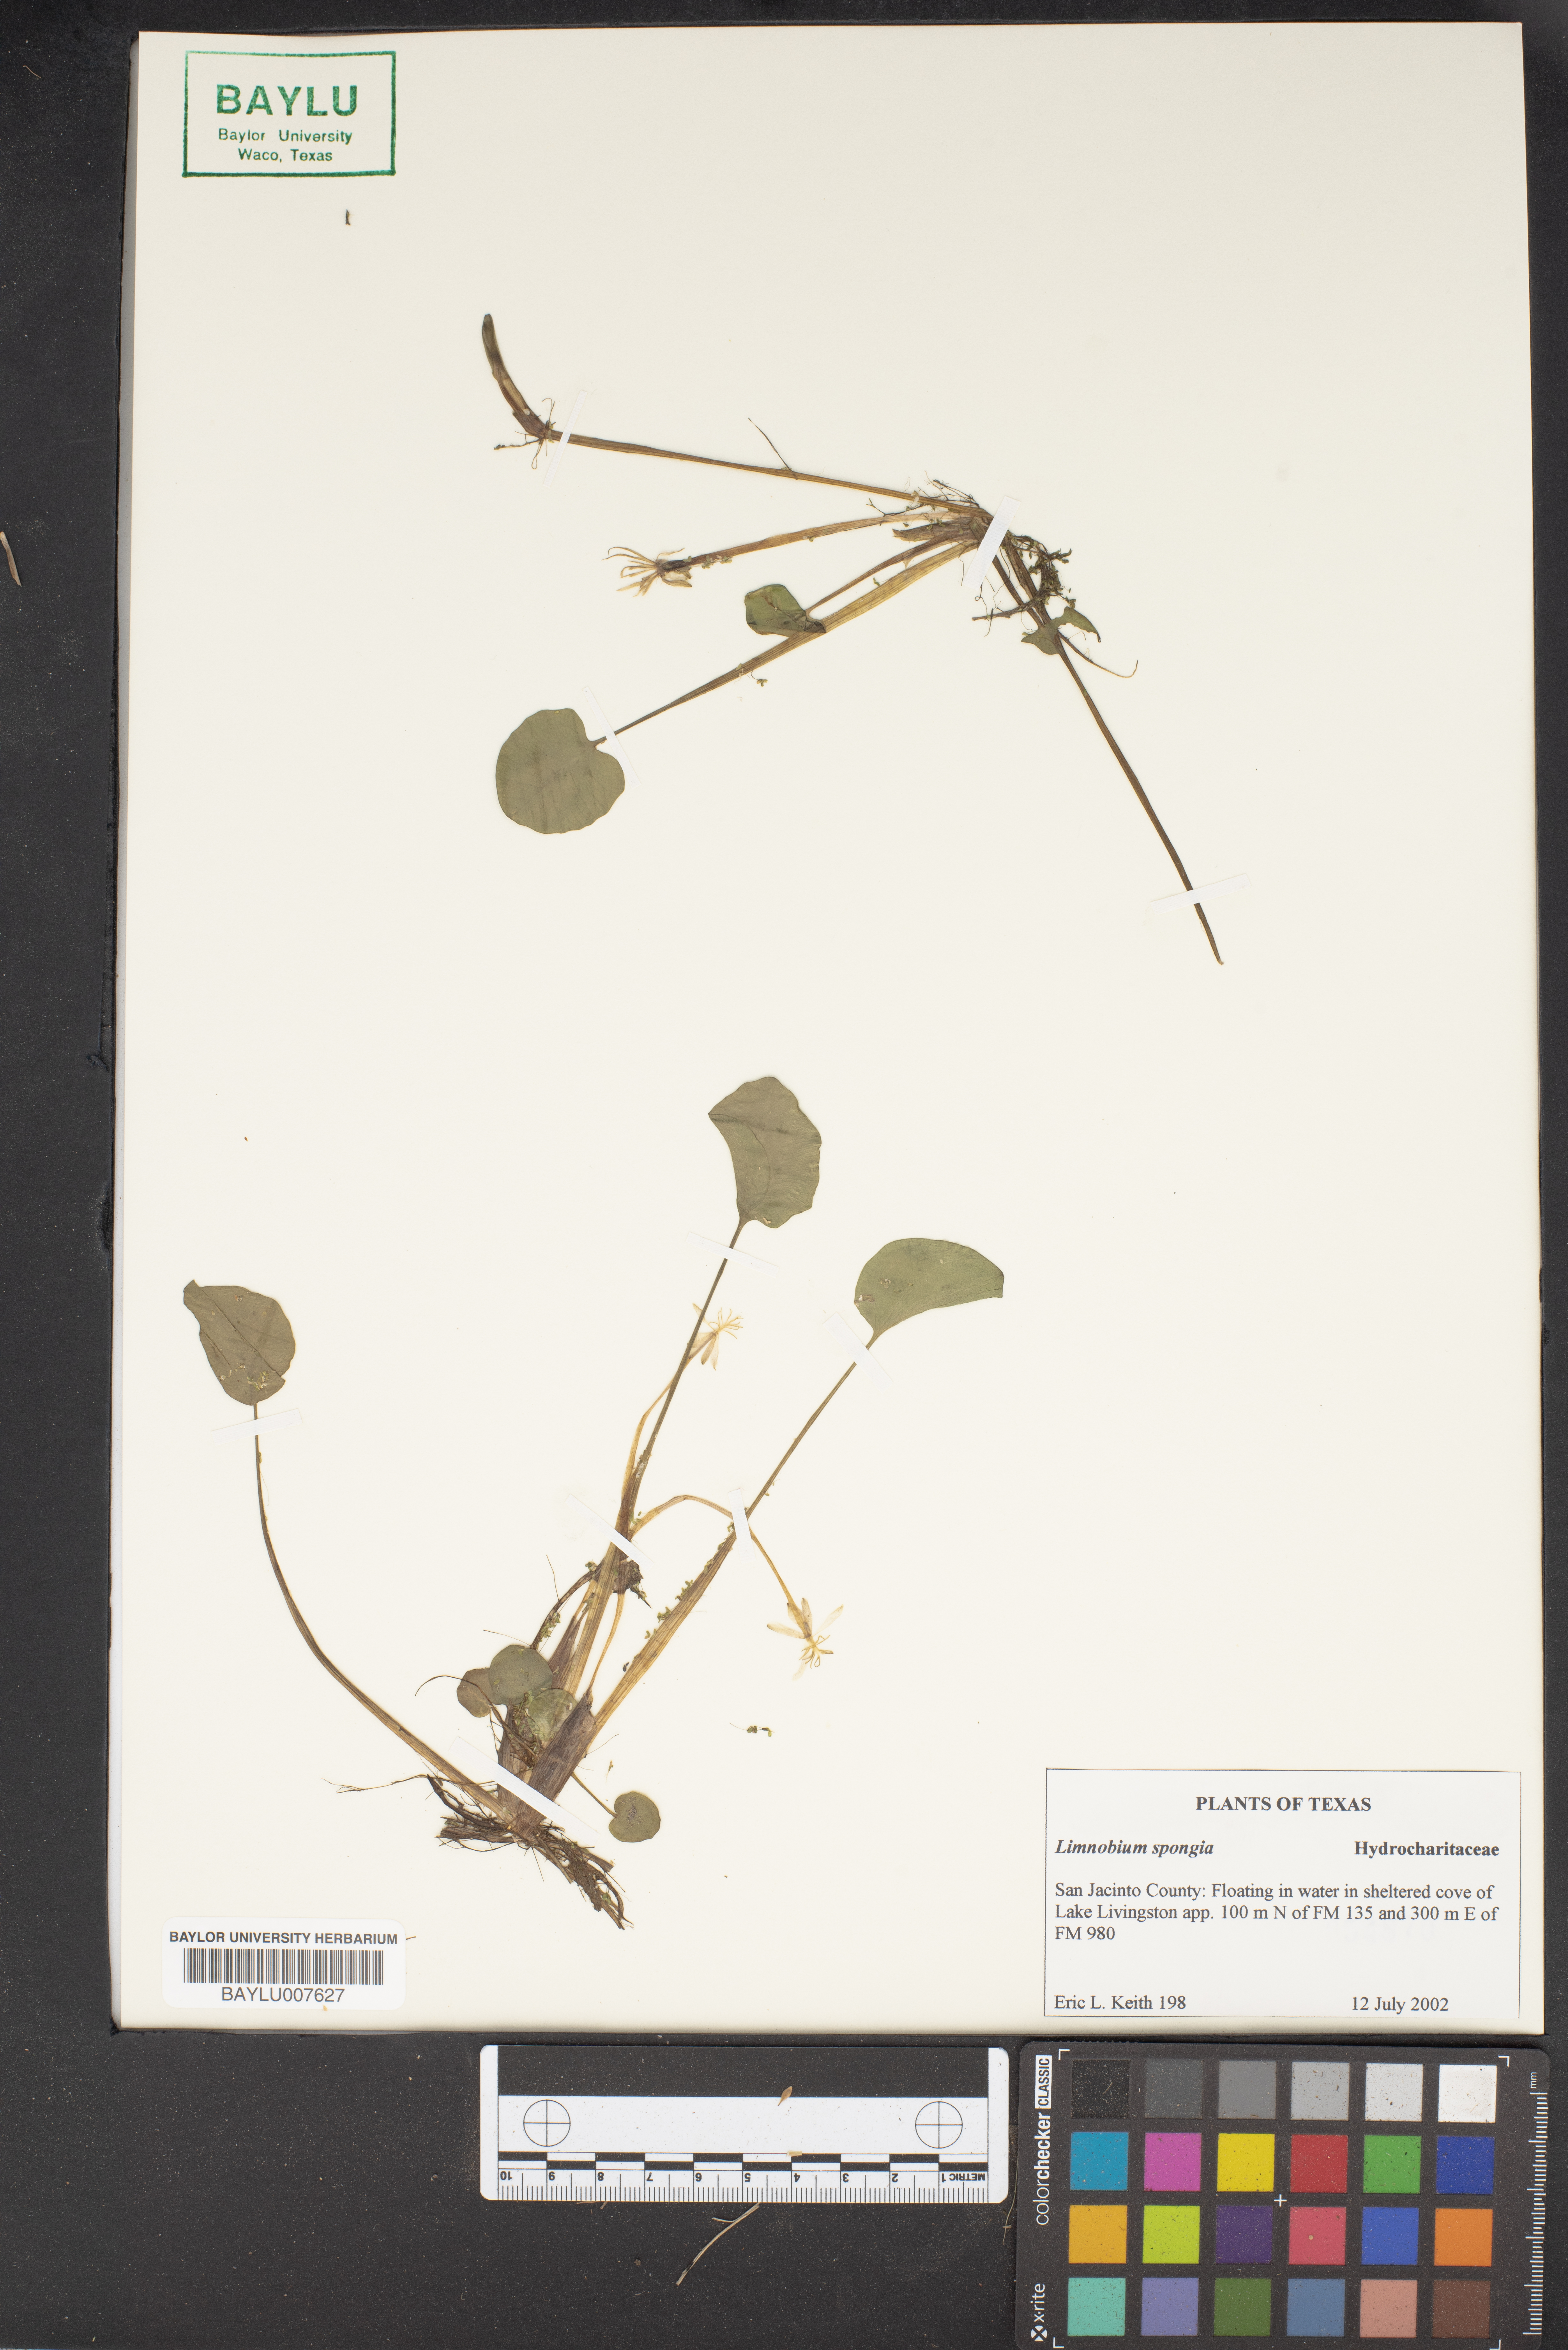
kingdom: Plantae
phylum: Tracheophyta
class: Liliopsida
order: Alismatales
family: Hydrocharitaceae
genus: Hydrocharis
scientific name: Hydrocharis spongia
